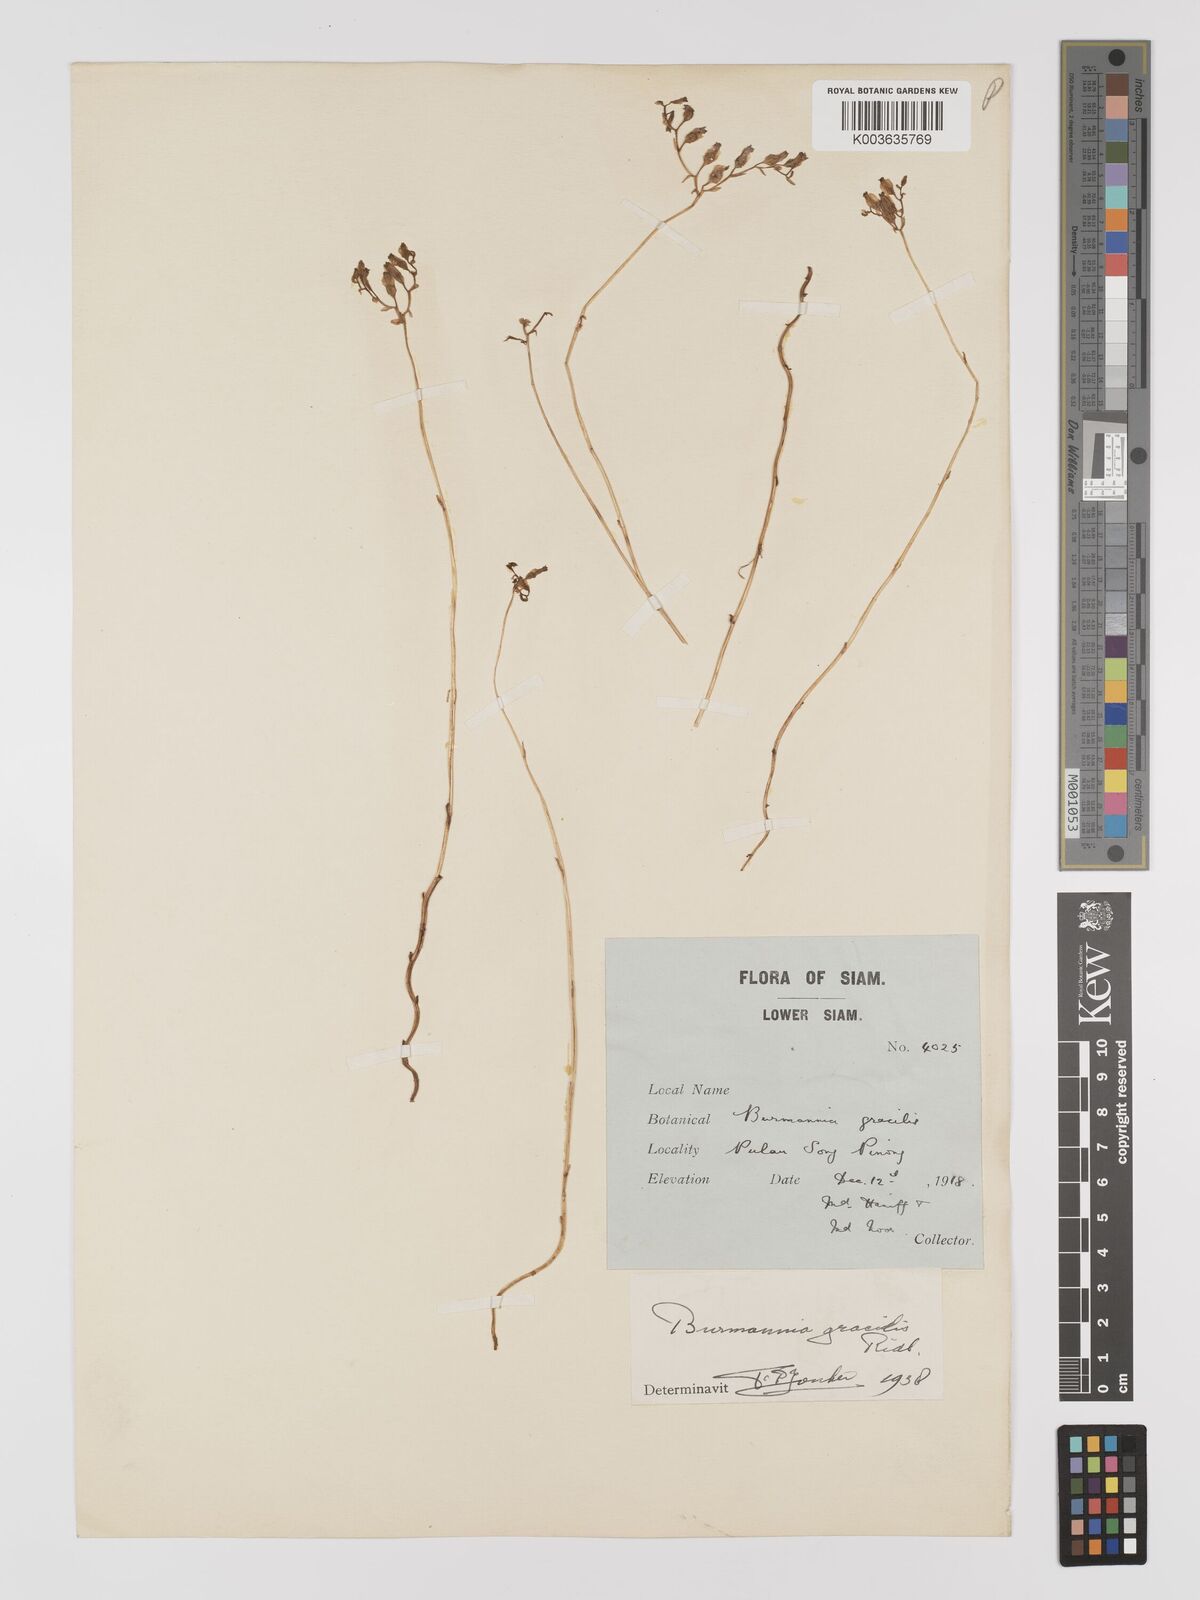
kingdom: Plantae
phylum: Tracheophyta
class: Liliopsida
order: Dioscoreales
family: Burmanniaceae
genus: Burmannia
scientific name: Burmannia gracilis
